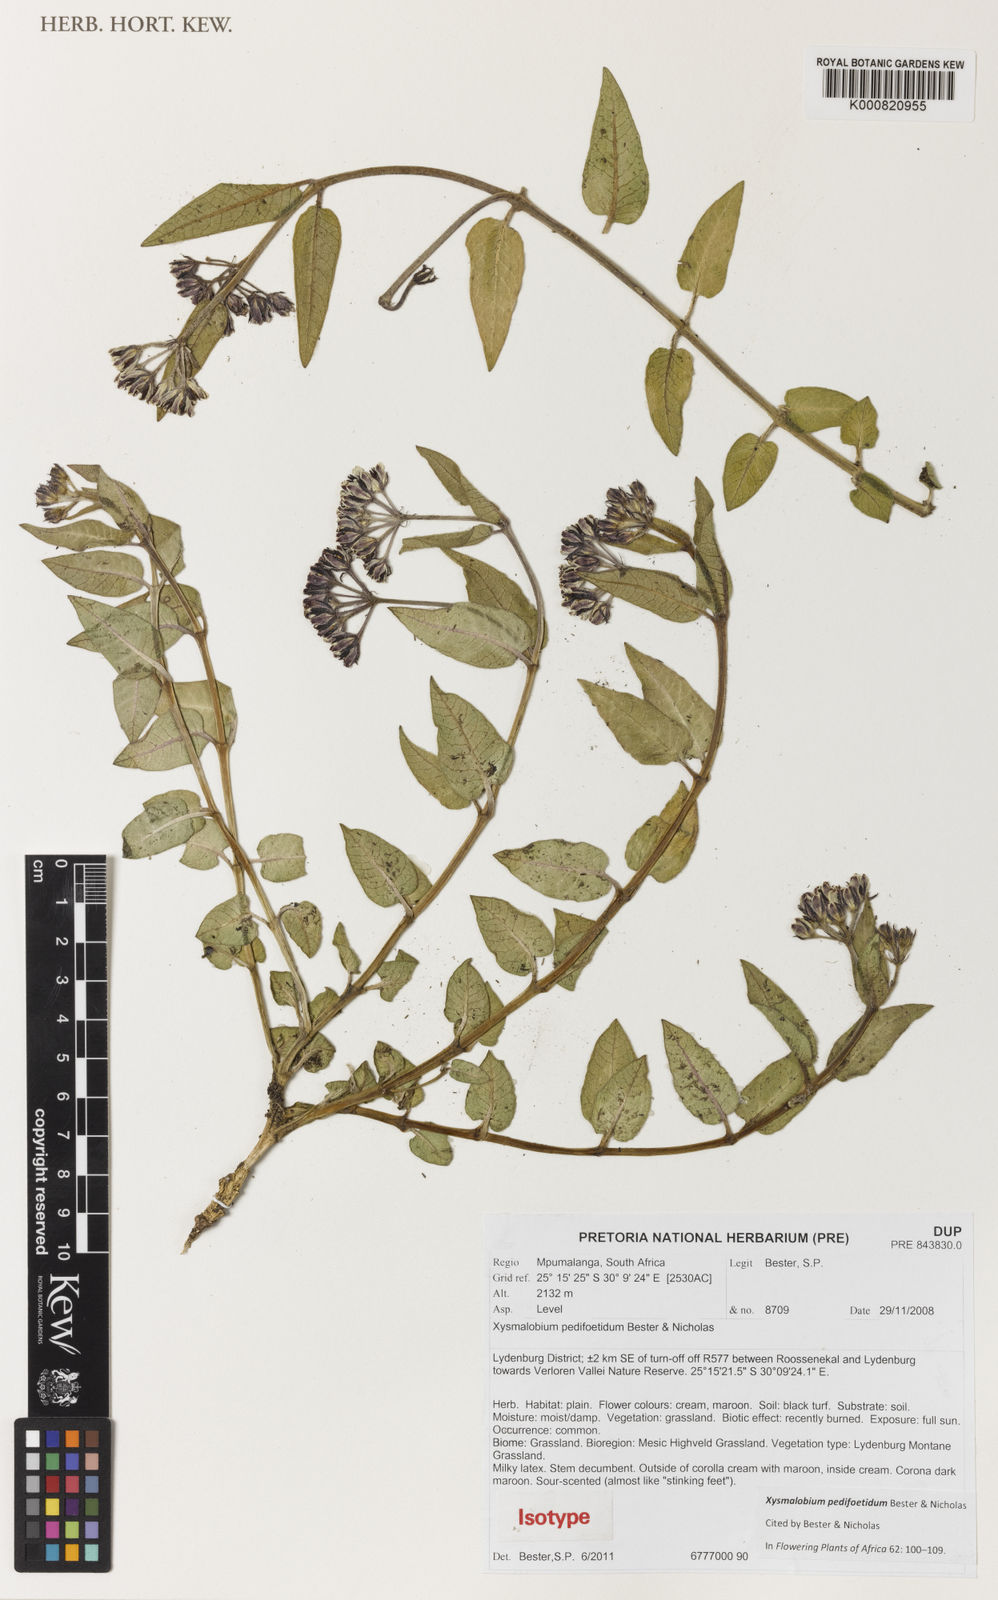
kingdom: Plantae
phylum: Tracheophyta
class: Magnoliopsida
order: Gentianales
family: Apocynaceae
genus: Xysmalobium
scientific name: Xysmalobium pedifoetidum
